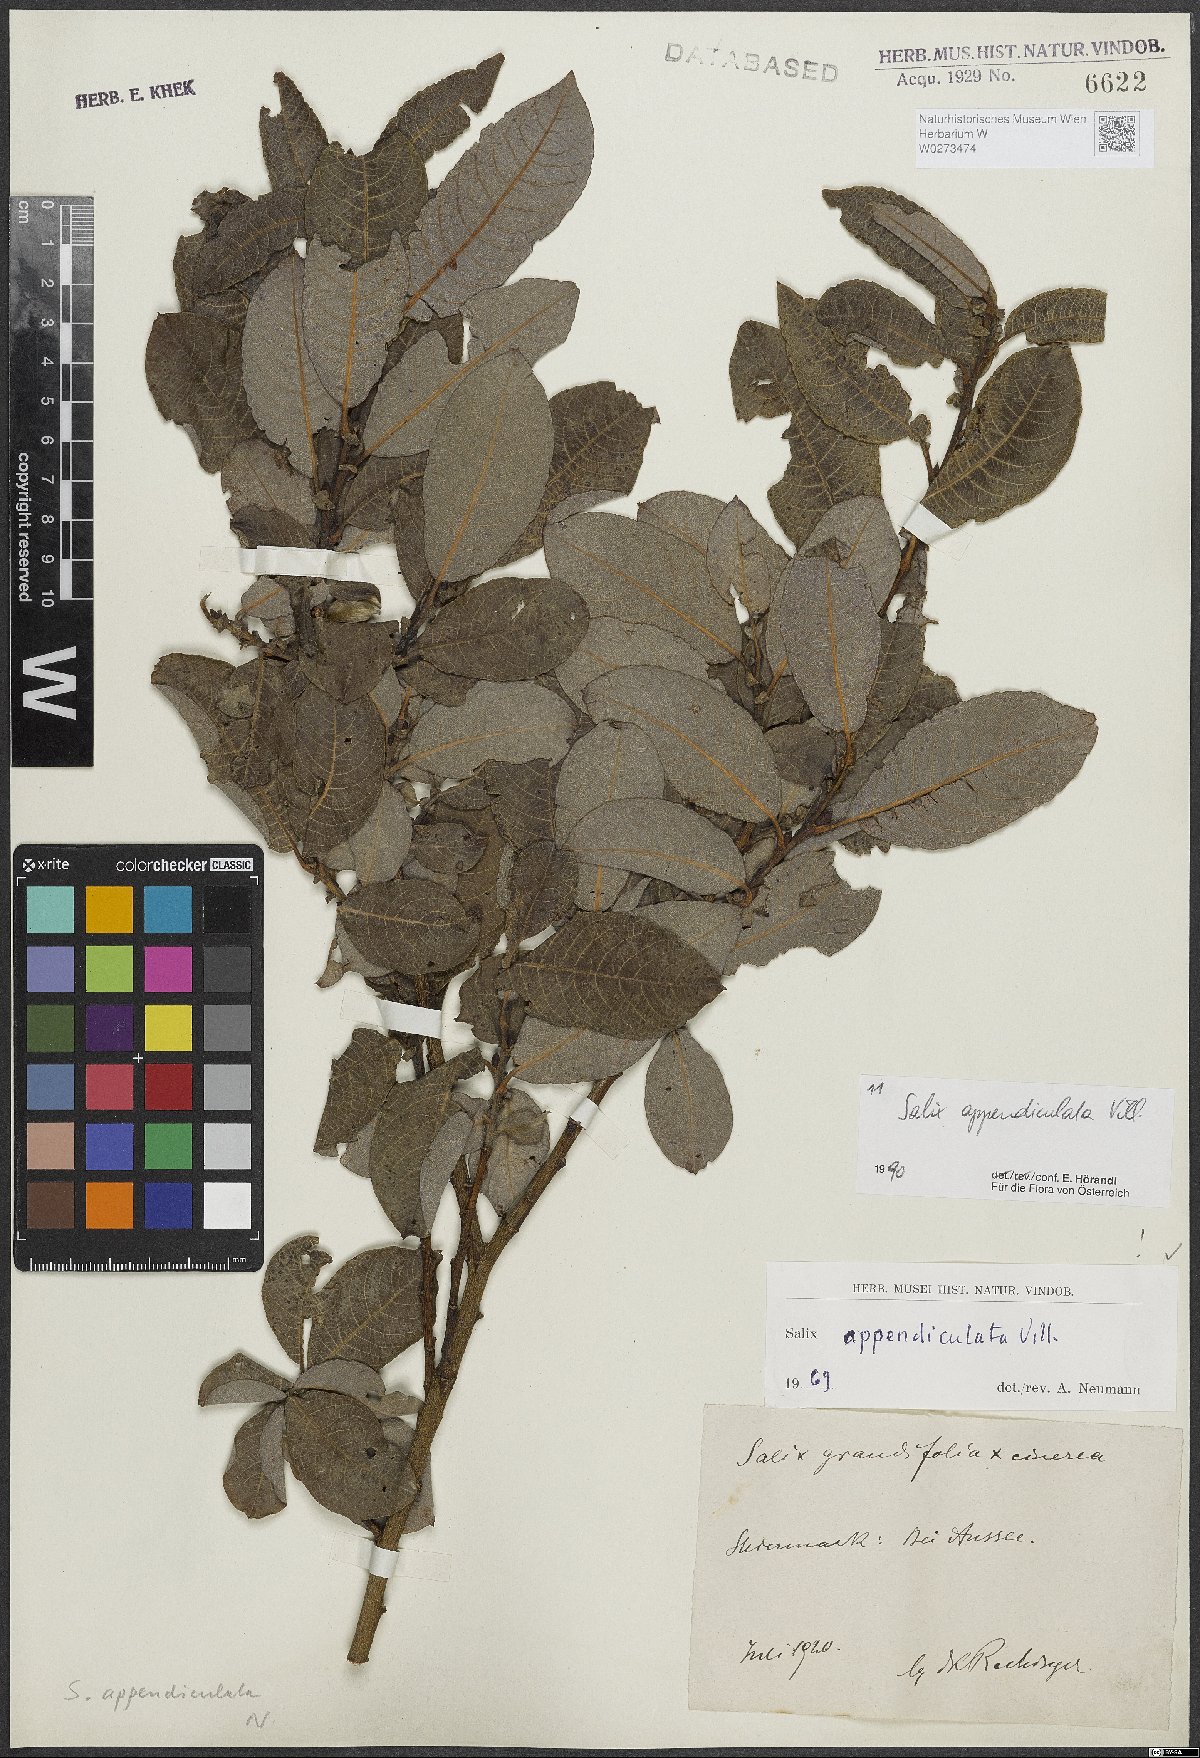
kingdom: Plantae
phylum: Tracheophyta
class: Magnoliopsida
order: Malpighiales
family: Salicaceae
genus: Salix
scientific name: Salix appendiculata
